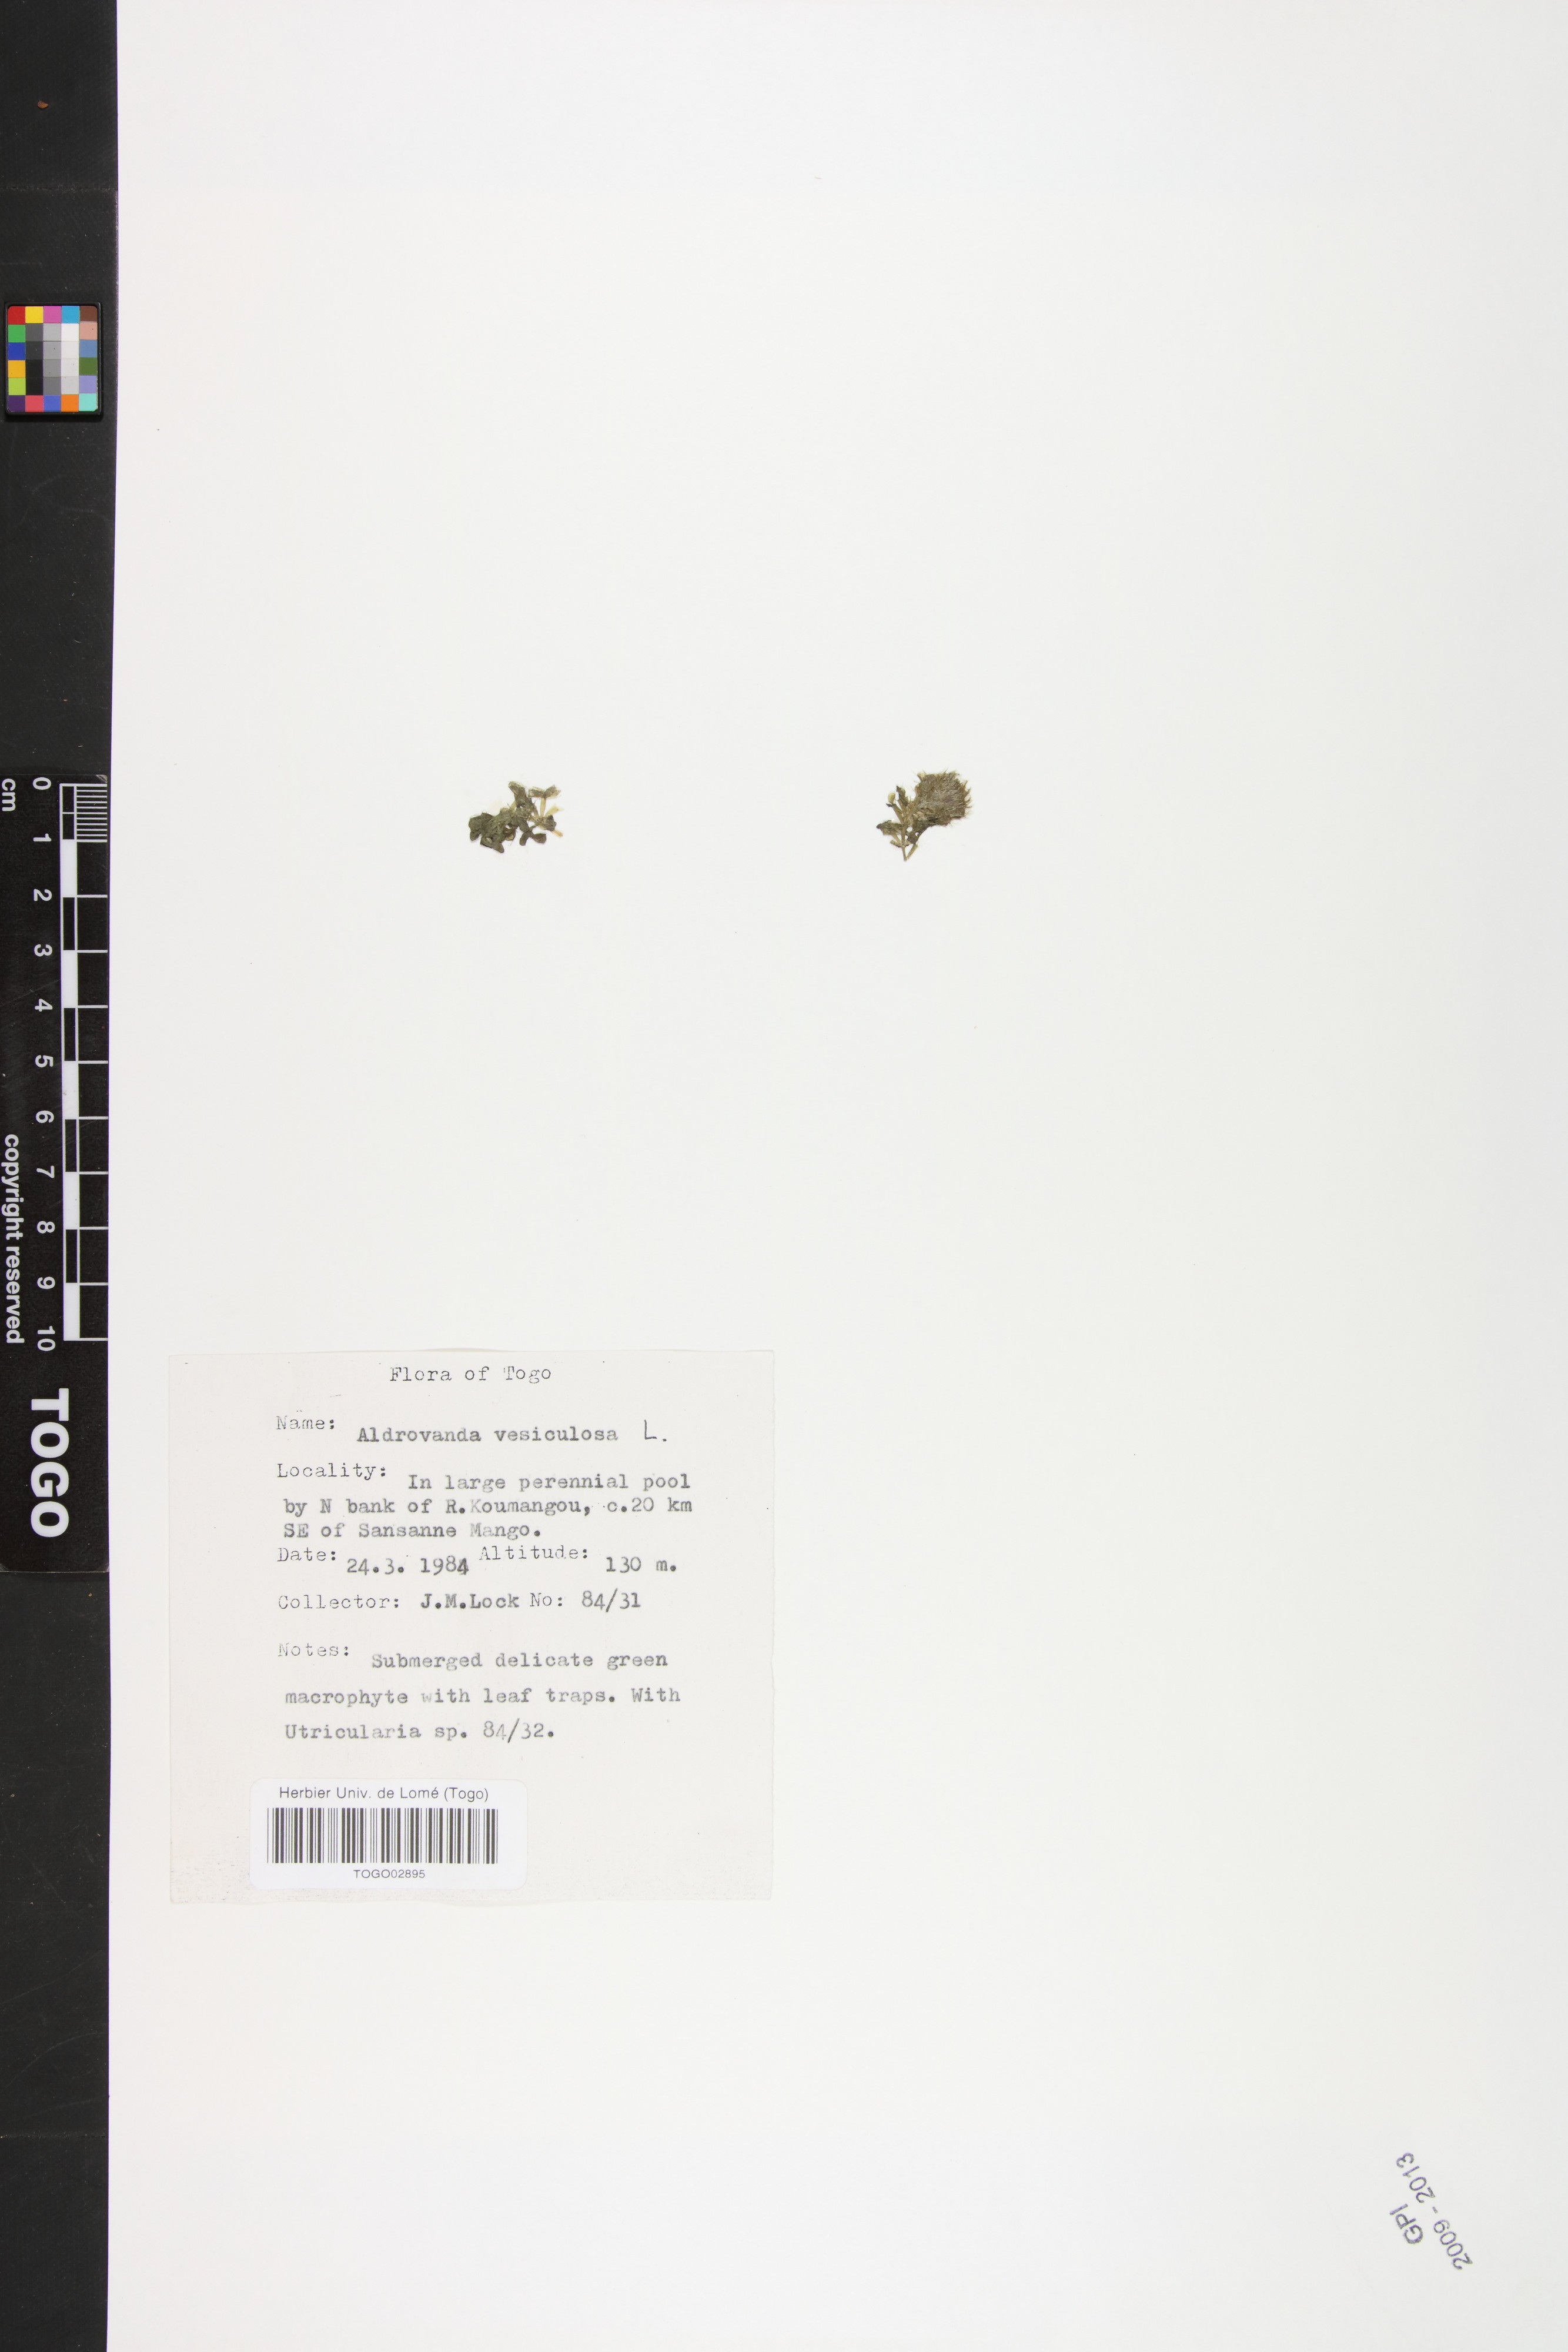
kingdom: Plantae
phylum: Tracheophyta
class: Magnoliopsida
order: Caryophyllales
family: Droseraceae
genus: Aldrovanda
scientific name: Aldrovanda vesiculosa
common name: Waterwheel plant
